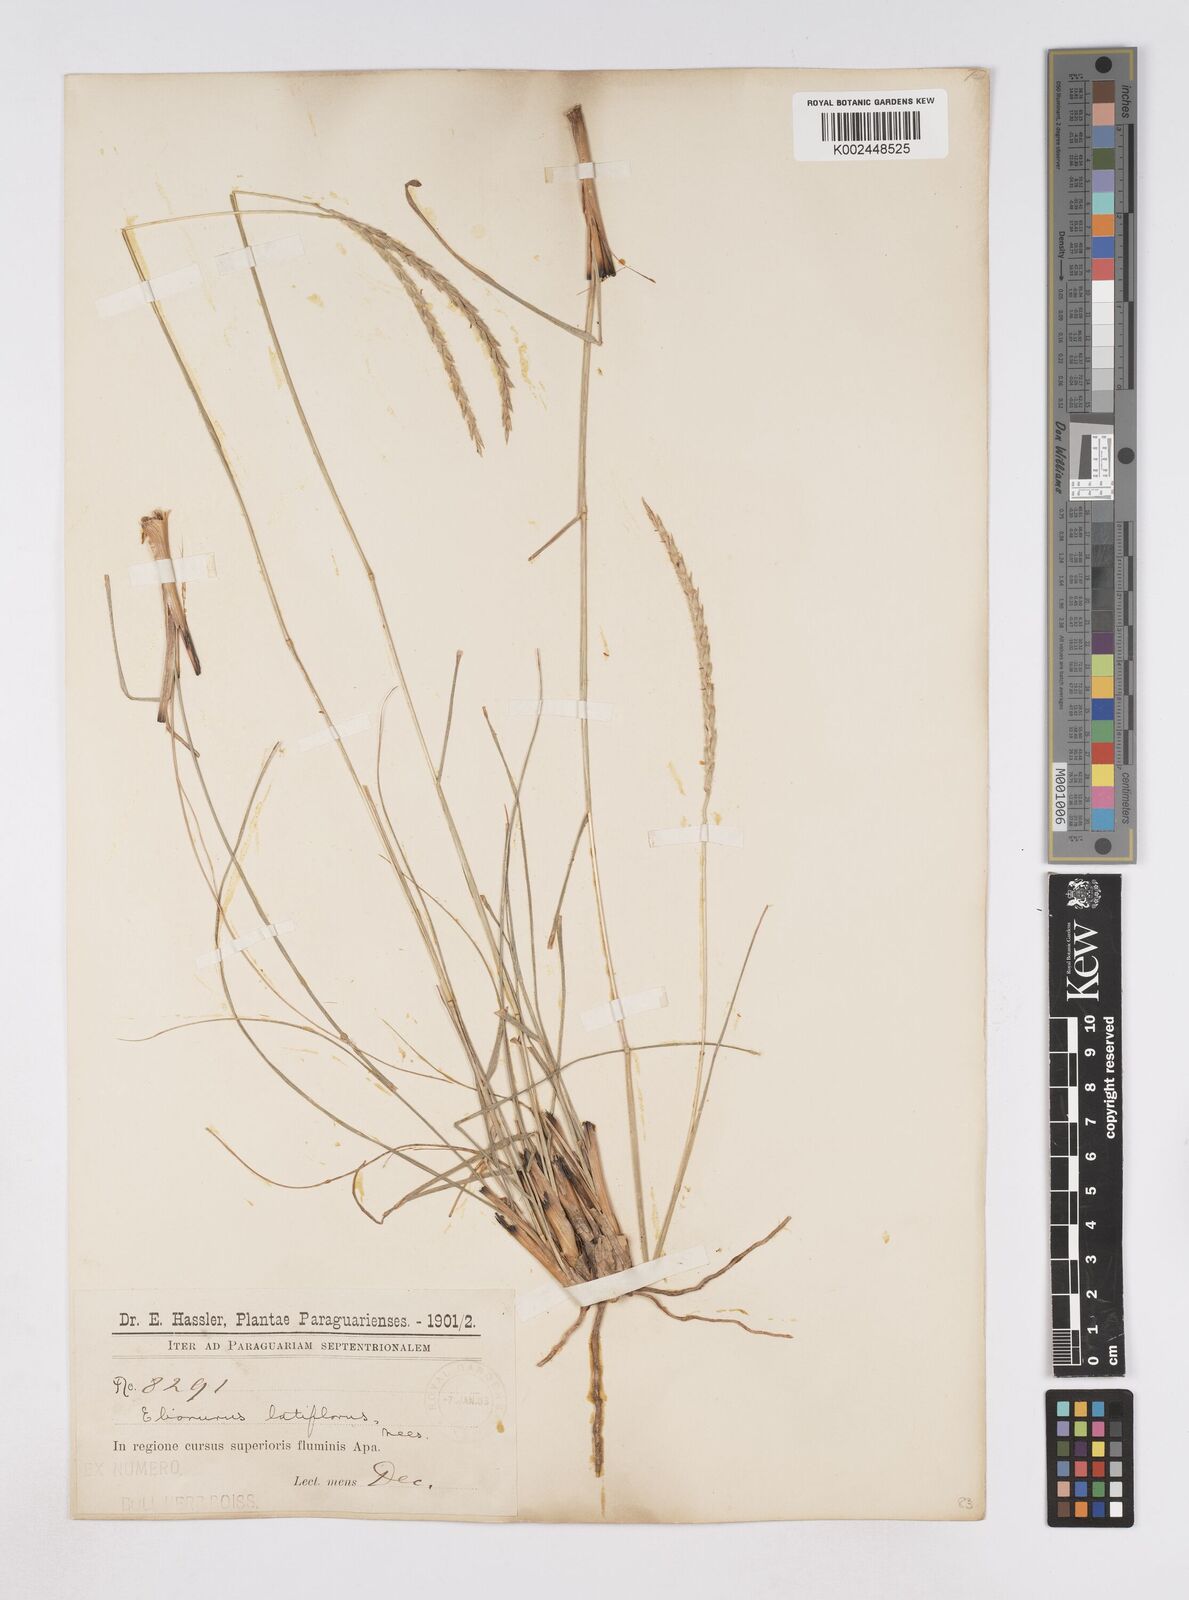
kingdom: Plantae
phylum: Tracheophyta
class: Liliopsida
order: Poales
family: Poaceae
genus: Elionurus
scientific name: Elionurus muticus
